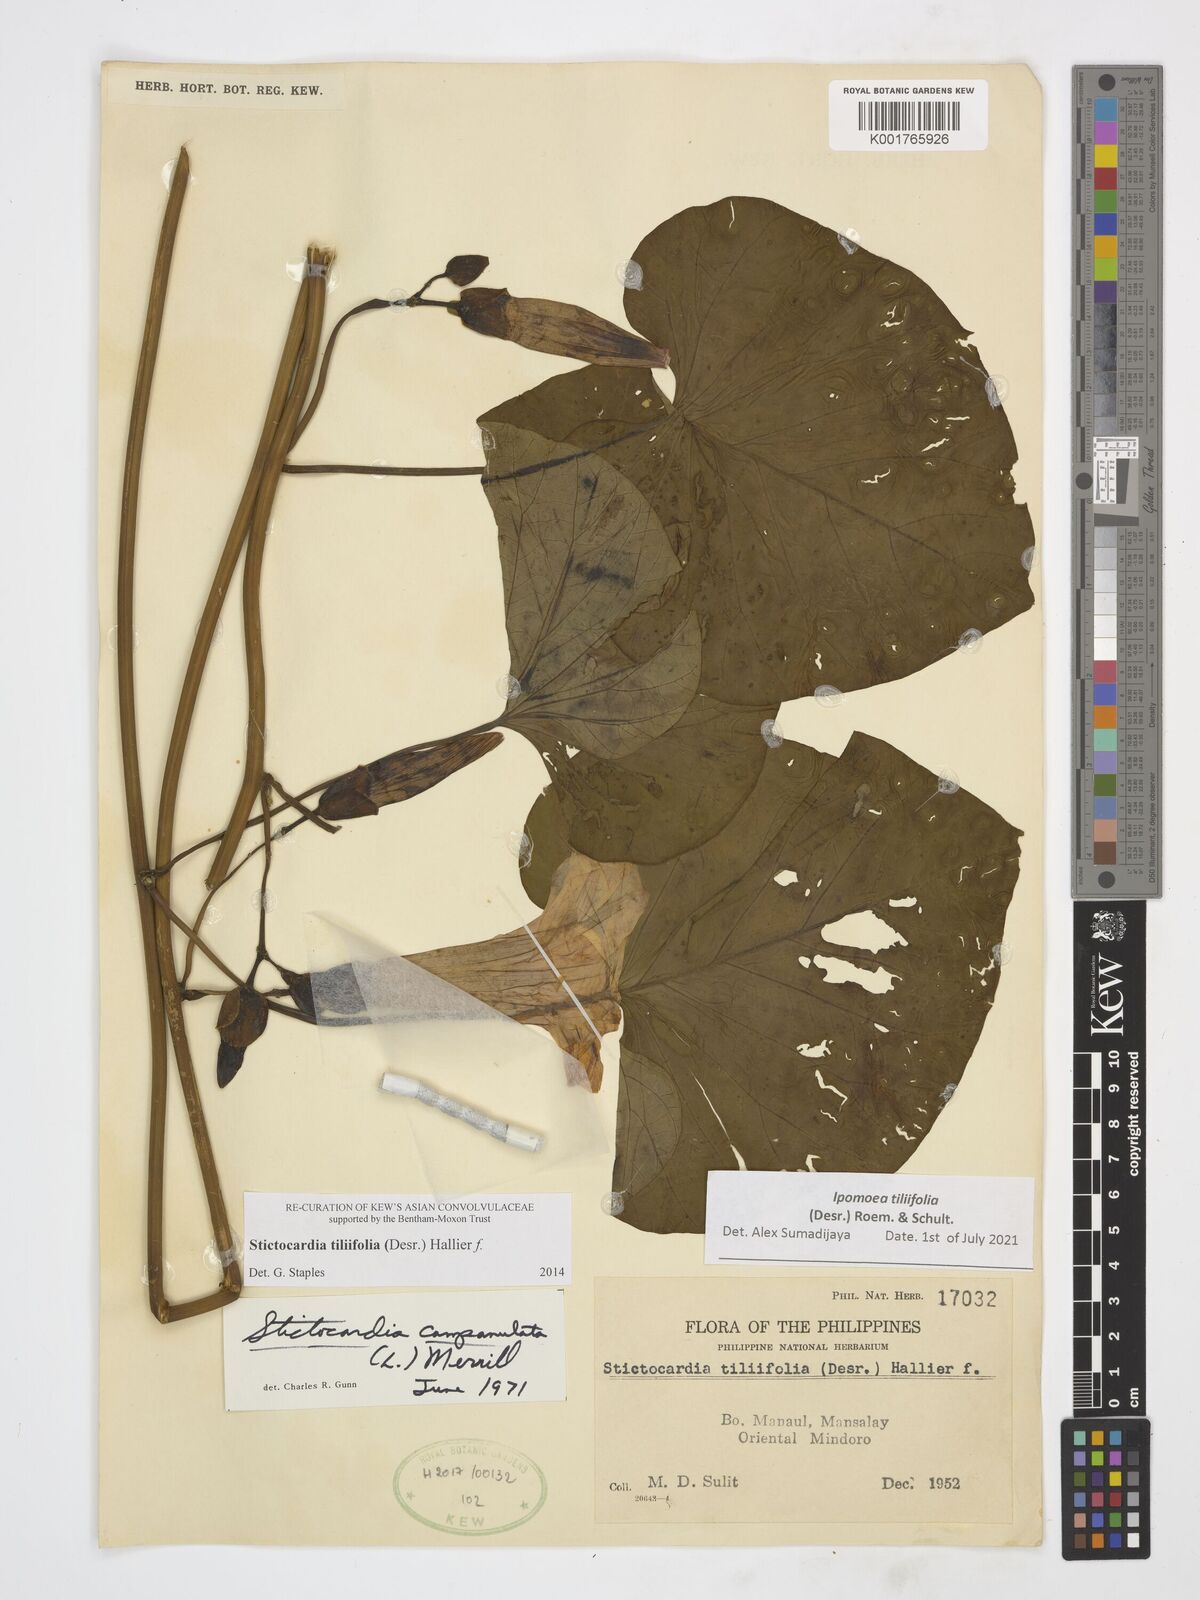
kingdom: Plantae
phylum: Tracheophyta
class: Magnoliopsida
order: Solanales
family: Convolvulaceae
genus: Stictocardia
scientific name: Stictocardia tiliifolia
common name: Spottedheart
